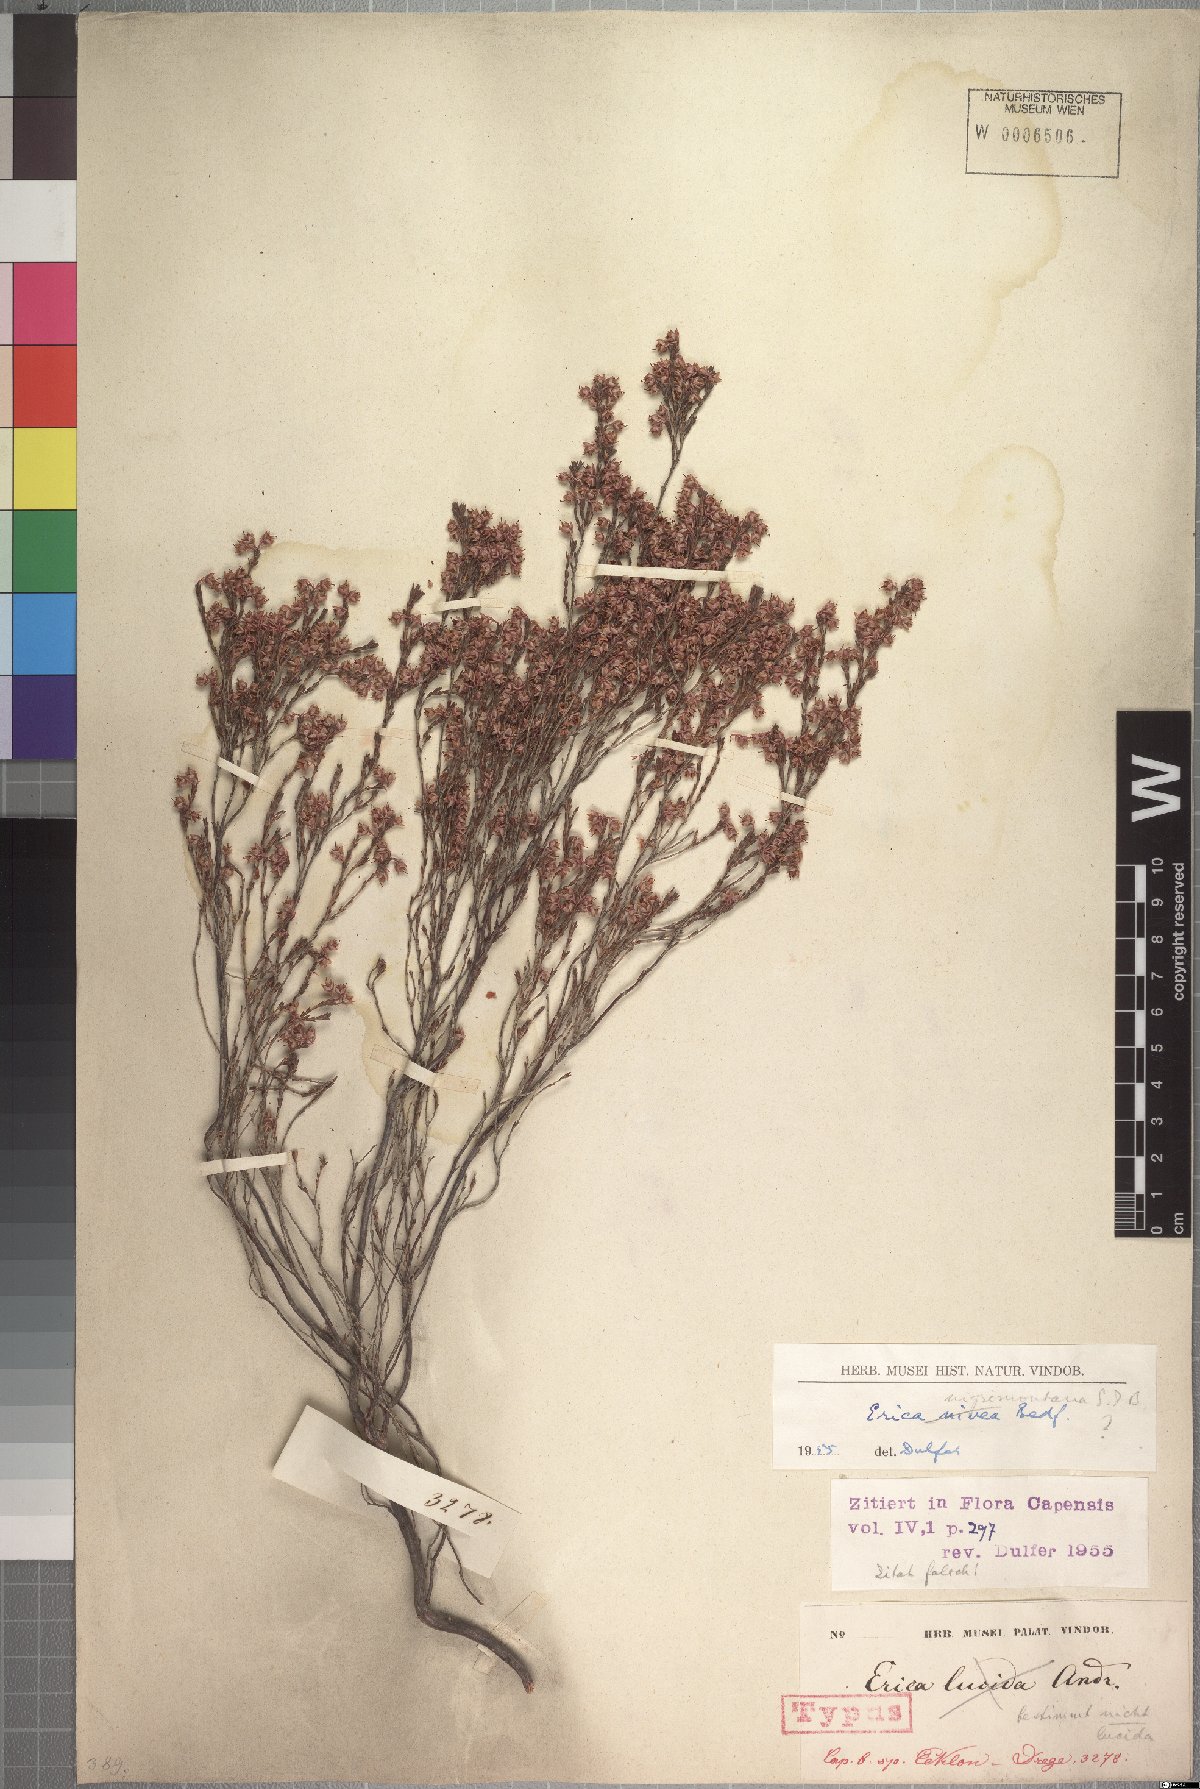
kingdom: Plantae
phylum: Tracheophyta
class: Magnoliopsida
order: Ericales
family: Ericaceae
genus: Erica
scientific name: Erica nigrimontana
